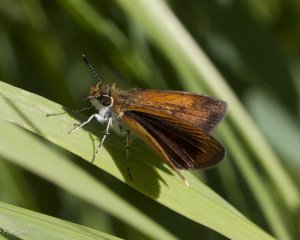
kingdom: Animalia
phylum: Arthropoda
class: Insecta
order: Lepidoptera
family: Hesperiidae
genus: Ancyloxypha
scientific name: Ancyloxypha numitor
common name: Least Skipper
